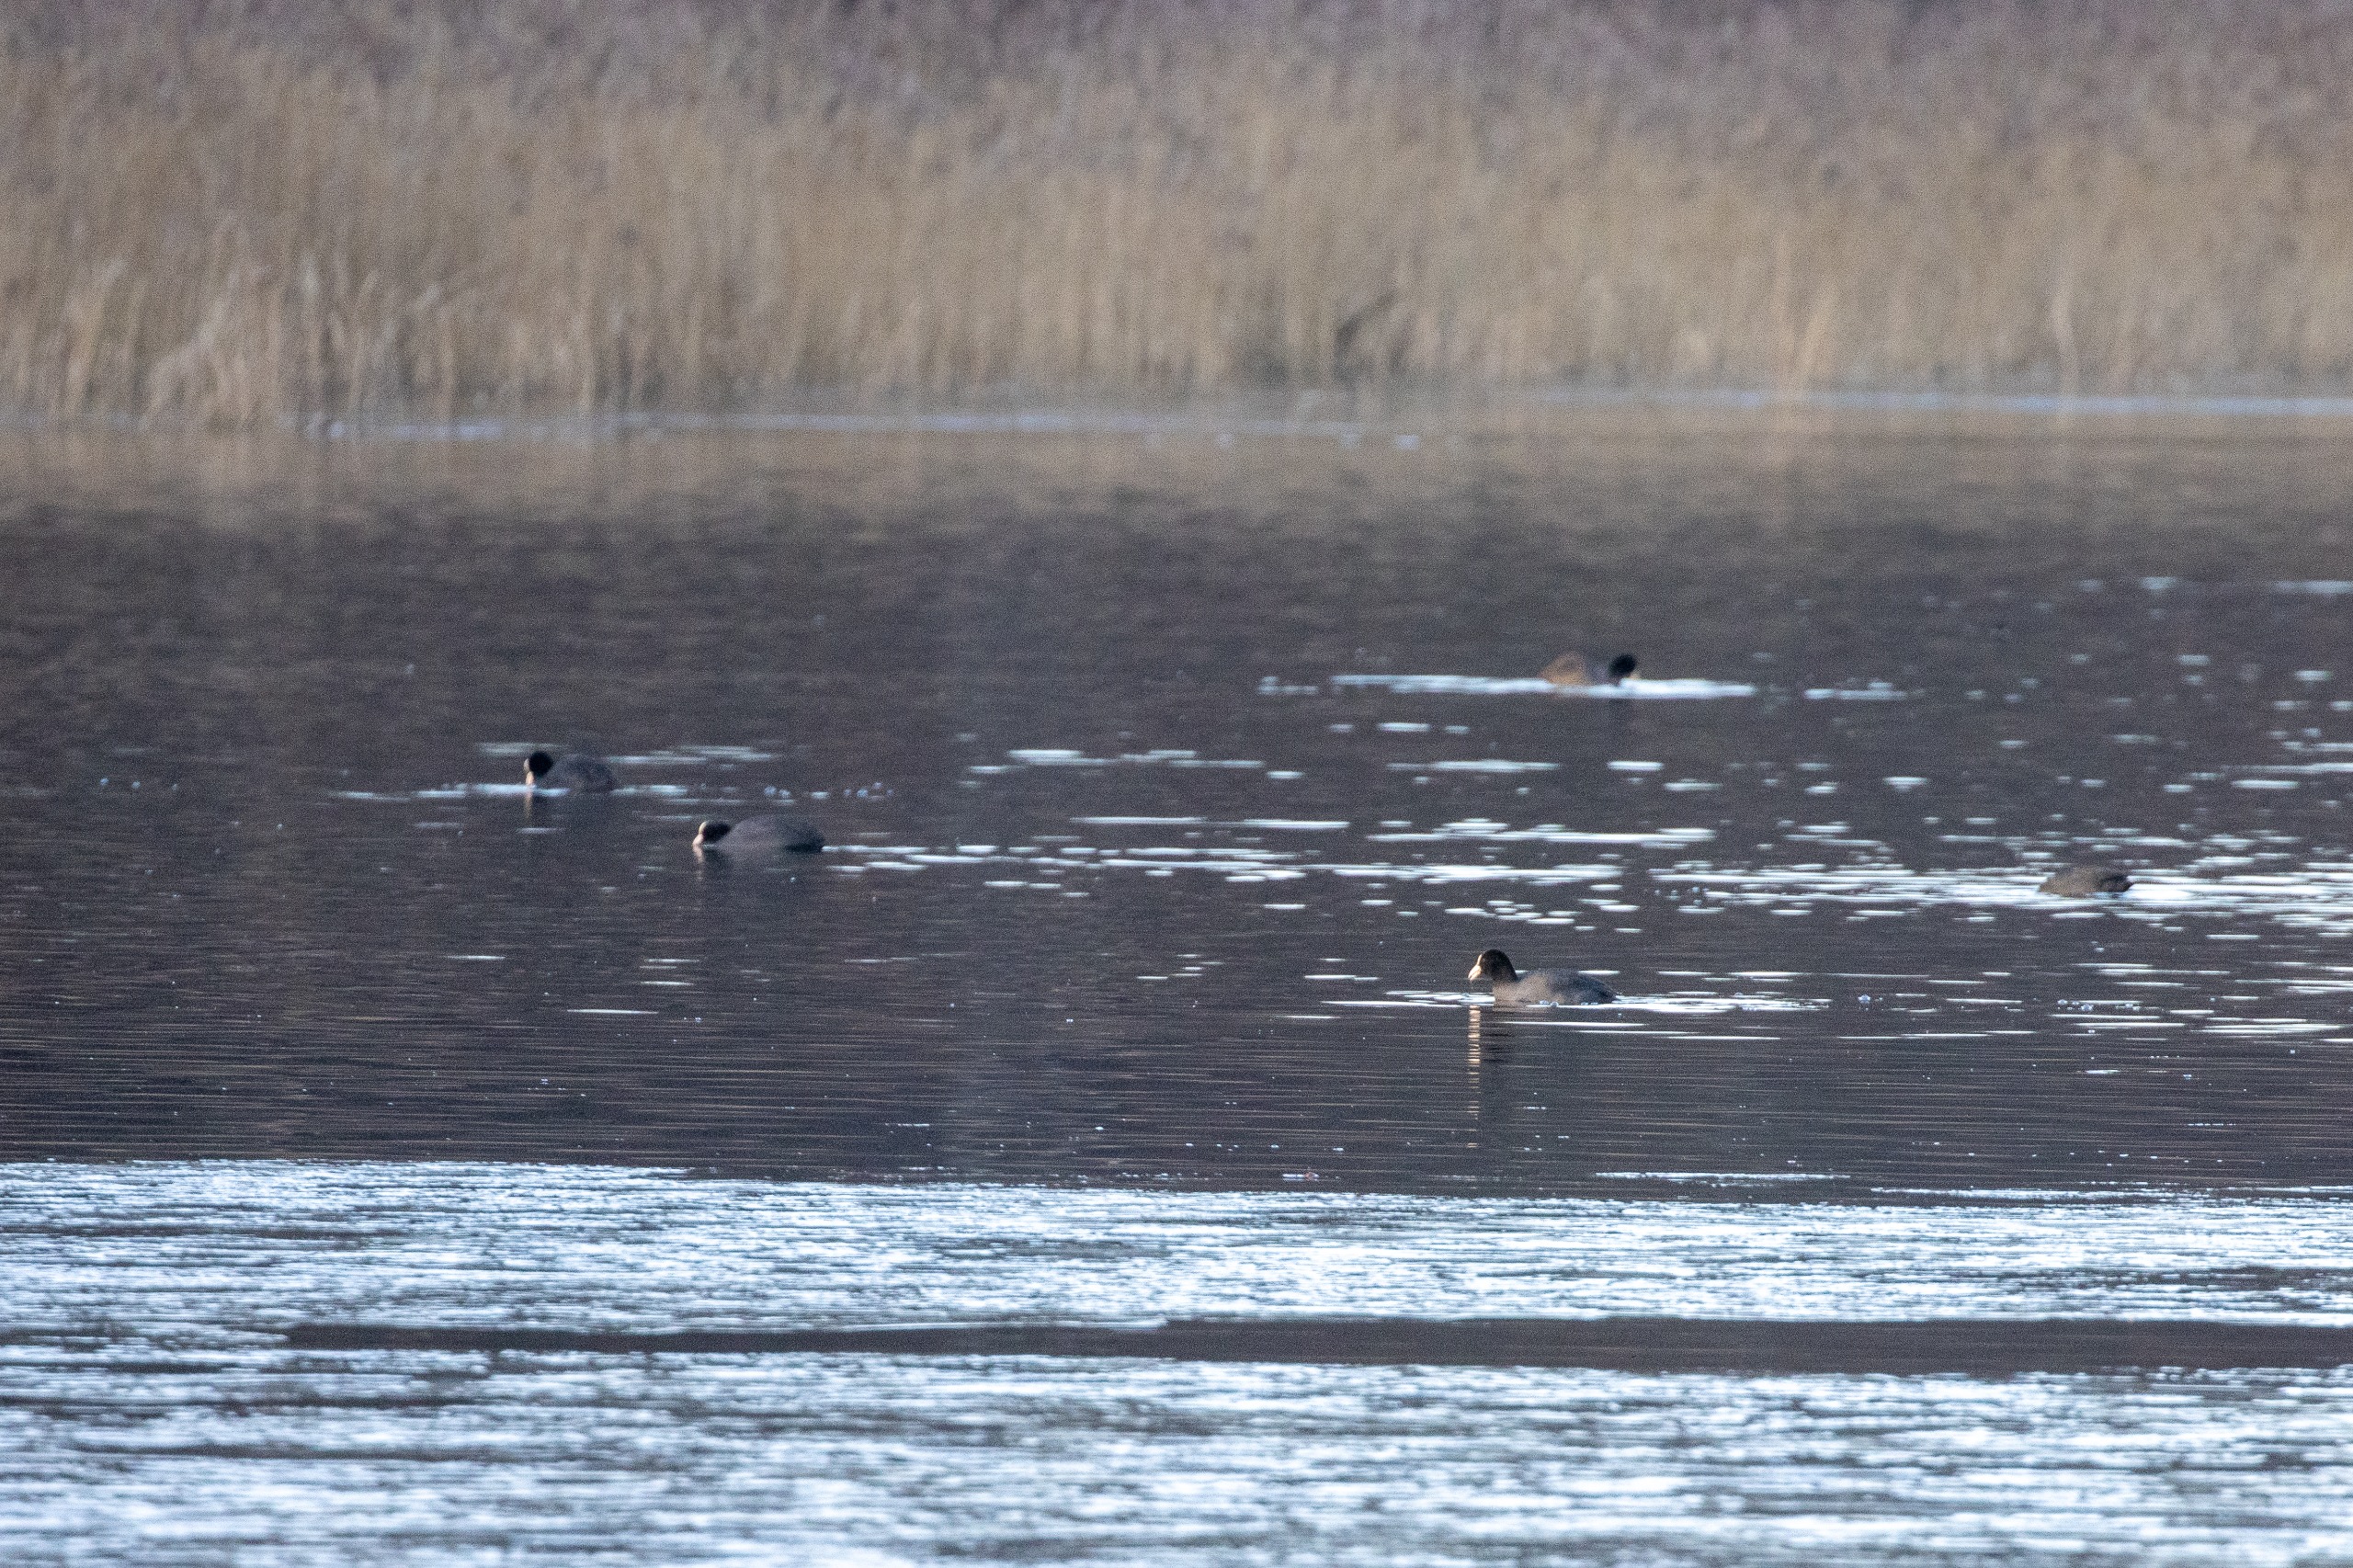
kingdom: Animalia
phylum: Chordata
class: Aves
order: Gruiformes
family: Rallidae
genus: Fulica
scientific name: Fulica atra
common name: Blishøne
